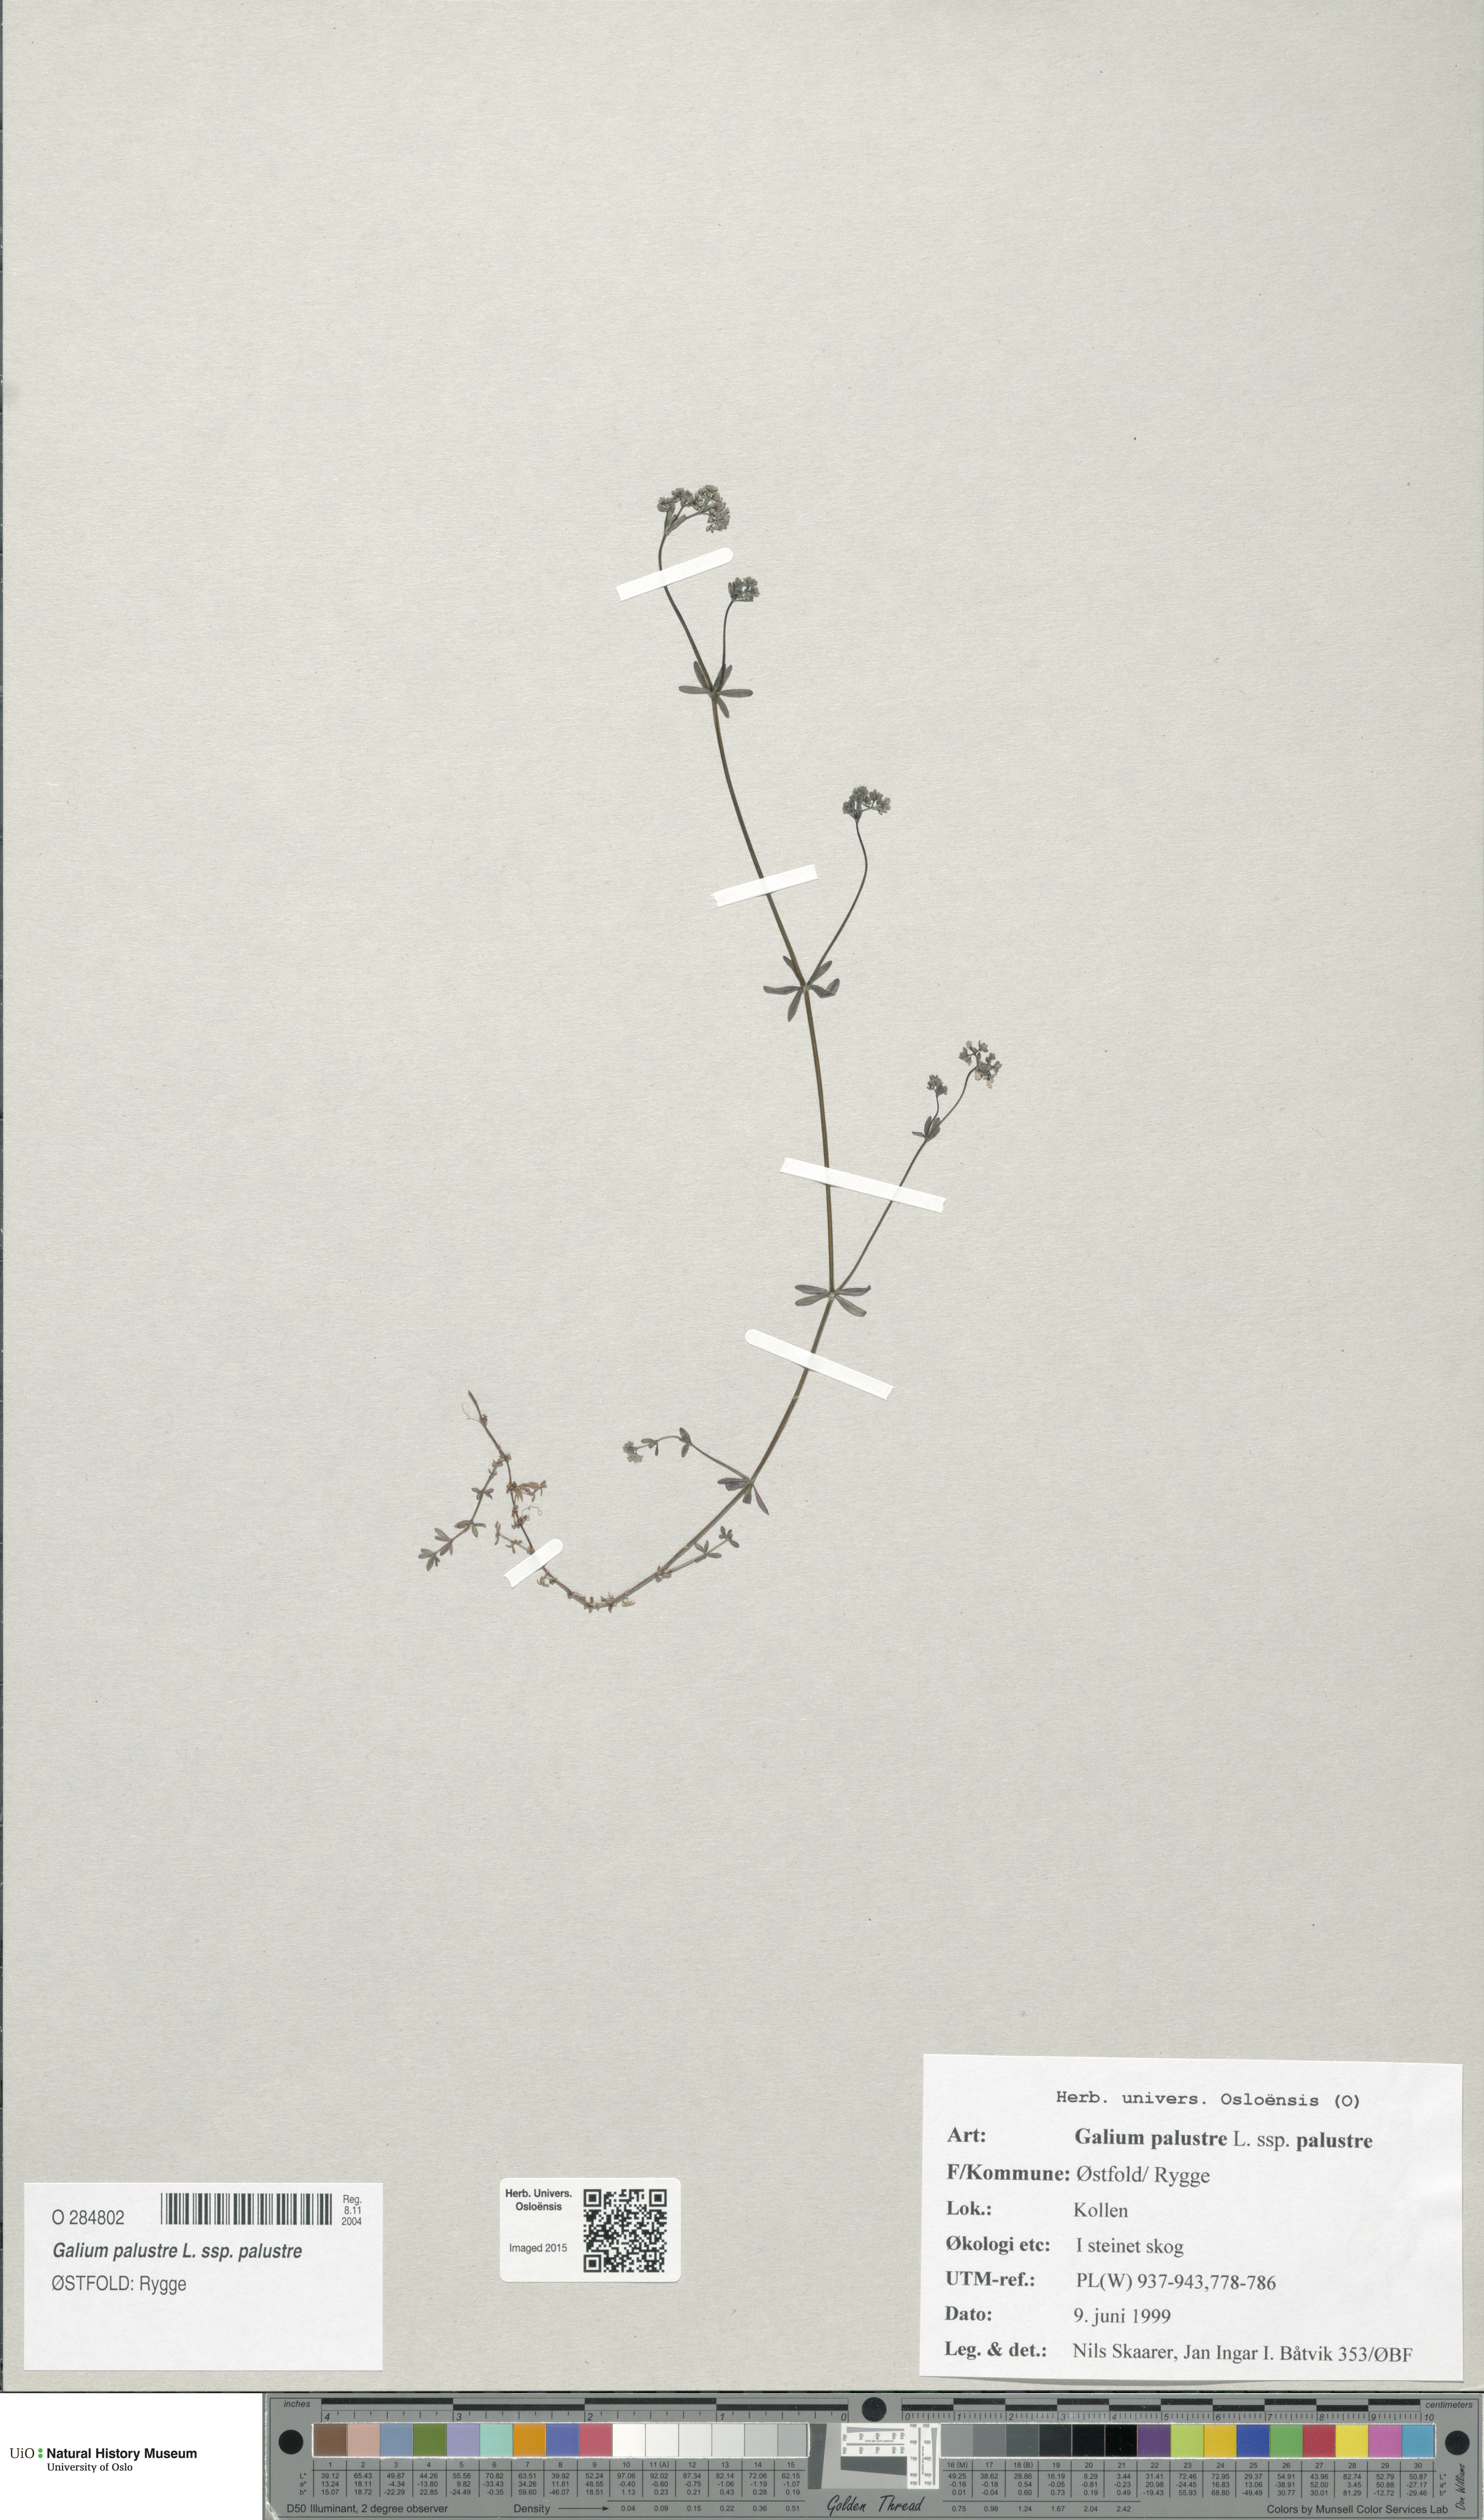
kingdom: Plantae
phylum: Tracheophyta
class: Magnoliopsida
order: Gentianales
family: Rubiaceae
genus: Galium
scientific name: Galium palustre
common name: Common marsh-bedstraw
